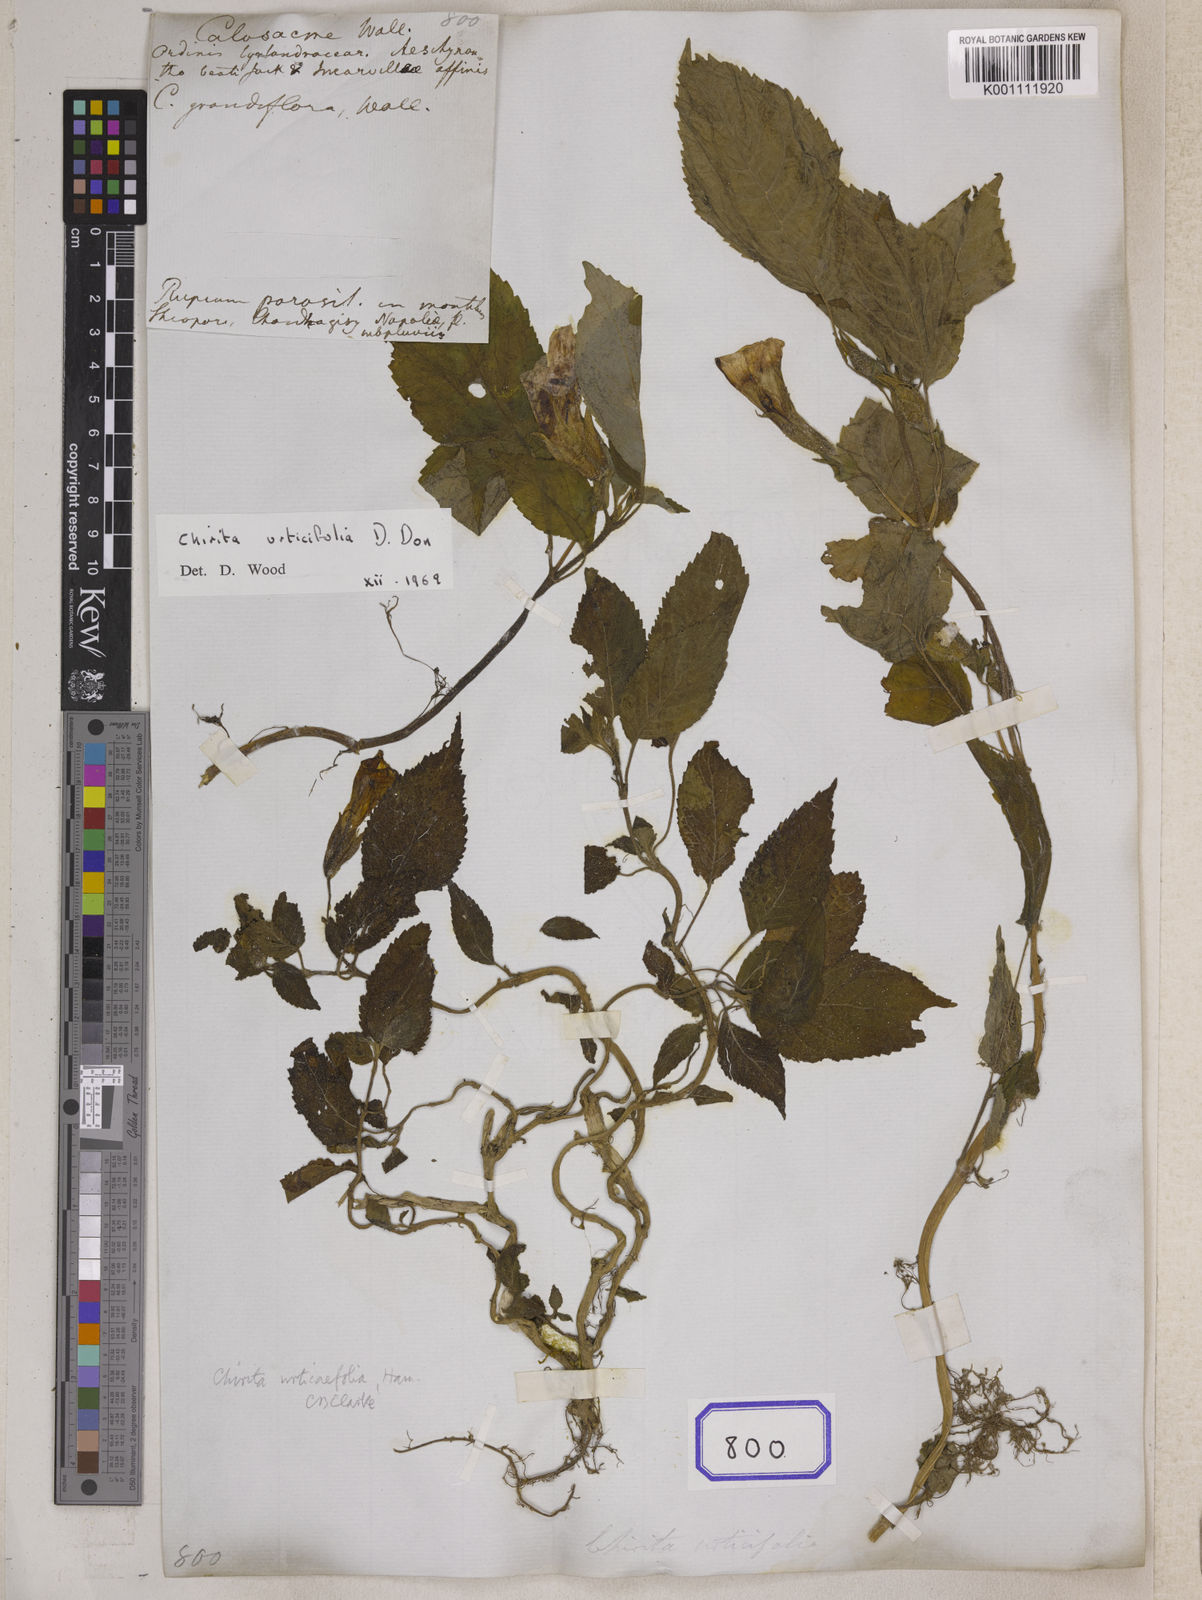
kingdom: Plantae
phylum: Tracheophyta
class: Magnoliopsida
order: Lamiales
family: Gesneriaceae
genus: Henckelia
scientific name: Henckelia urticifolia
